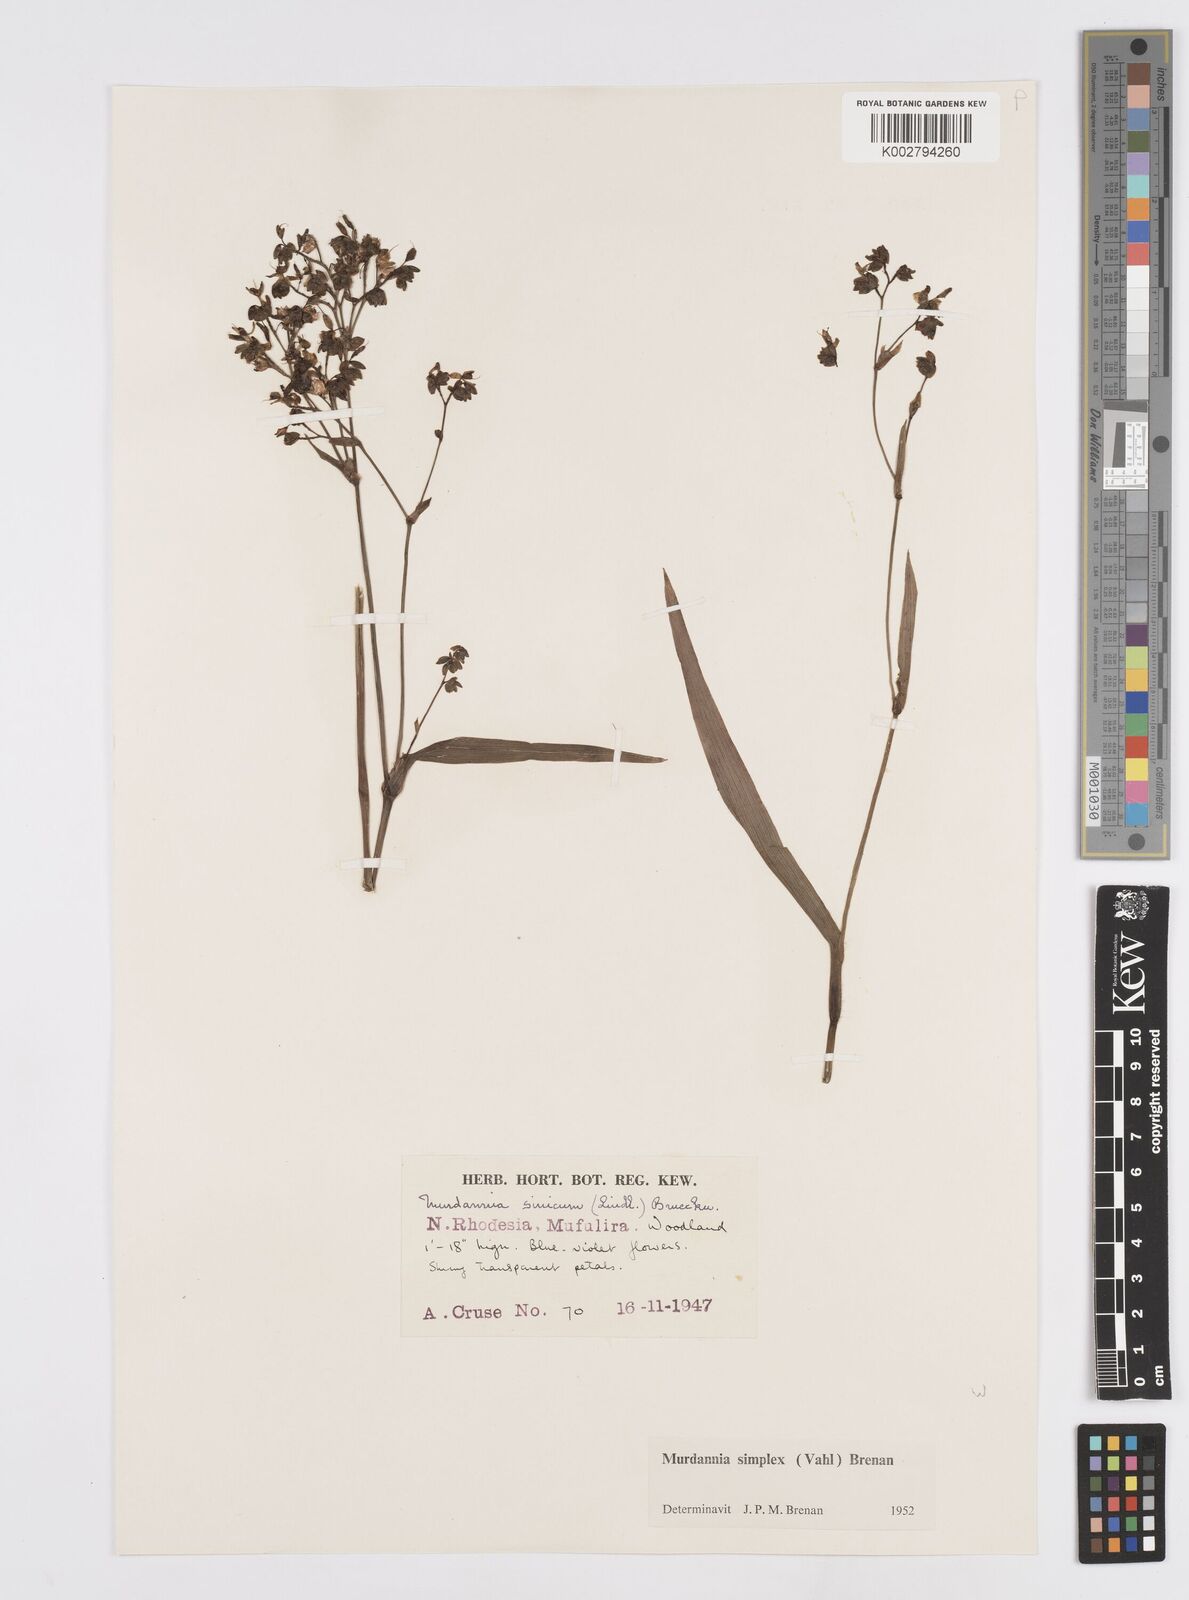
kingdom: Plantae
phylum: Tracheophyta
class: Liliopsida
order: Commelinales
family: Commelinaceae
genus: Murdannia
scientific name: Murdannia simplex
